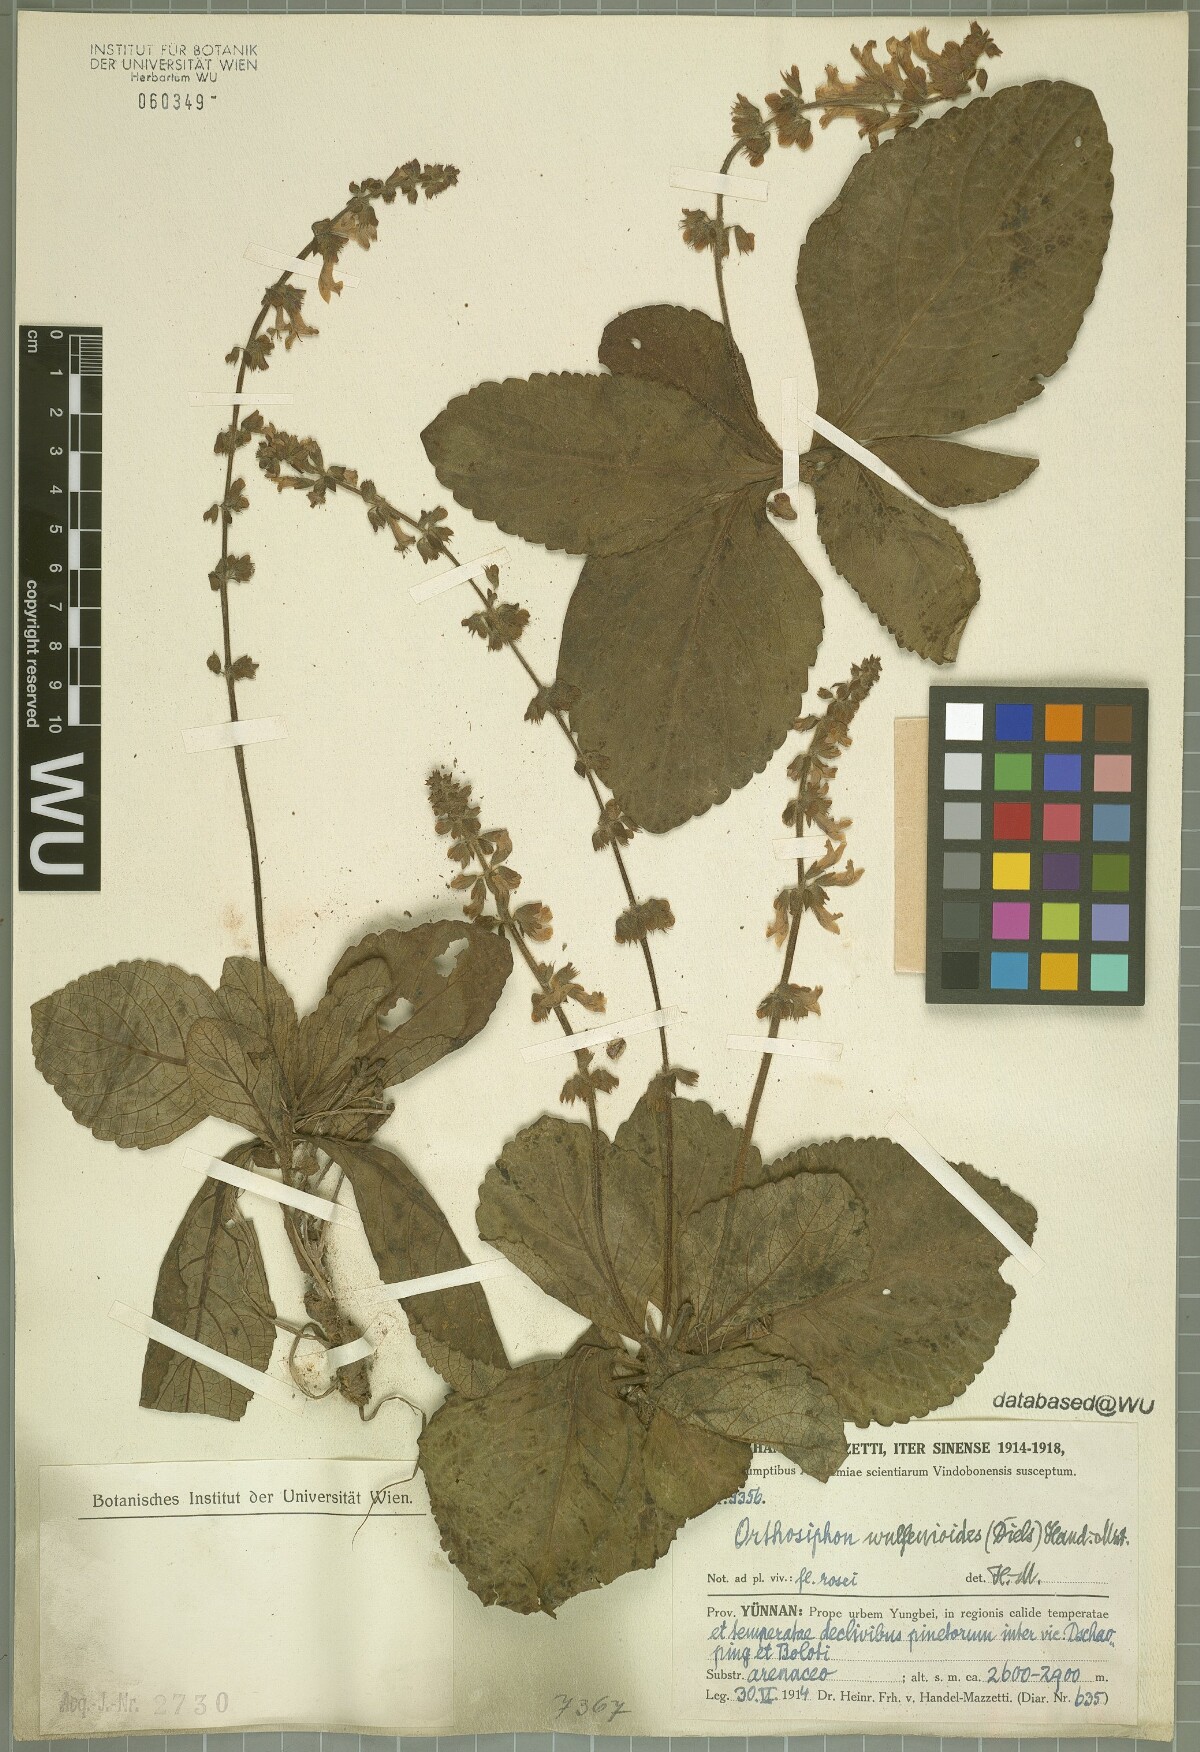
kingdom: Plantae
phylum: Tracheophyta
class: Magnoliopsida
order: Lamiales
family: Lamiaceae
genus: Orthosiphon
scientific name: Orthosiphon wulfenioides
